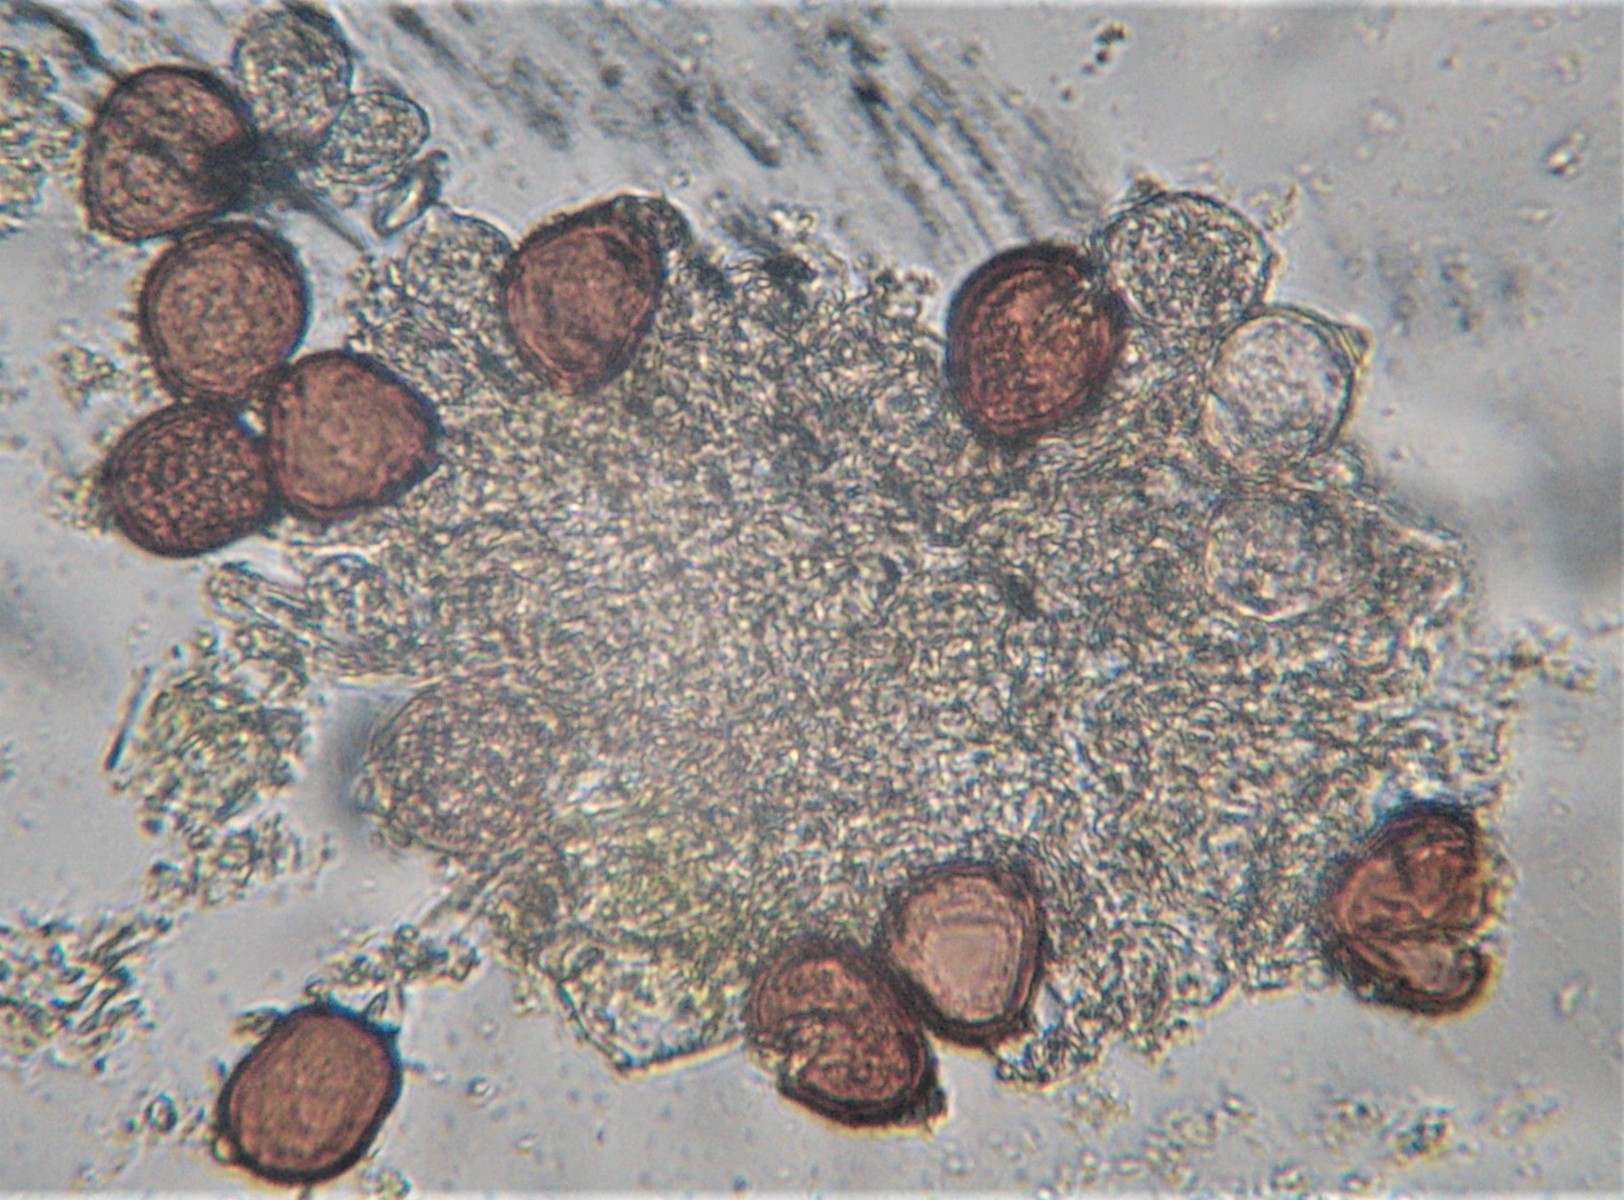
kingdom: Fungi
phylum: Basidiomycota
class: Pucciniomycetes
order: Pucciniales
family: Pucciniaceae
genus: Uromyces
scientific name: Uromyces rumicis
